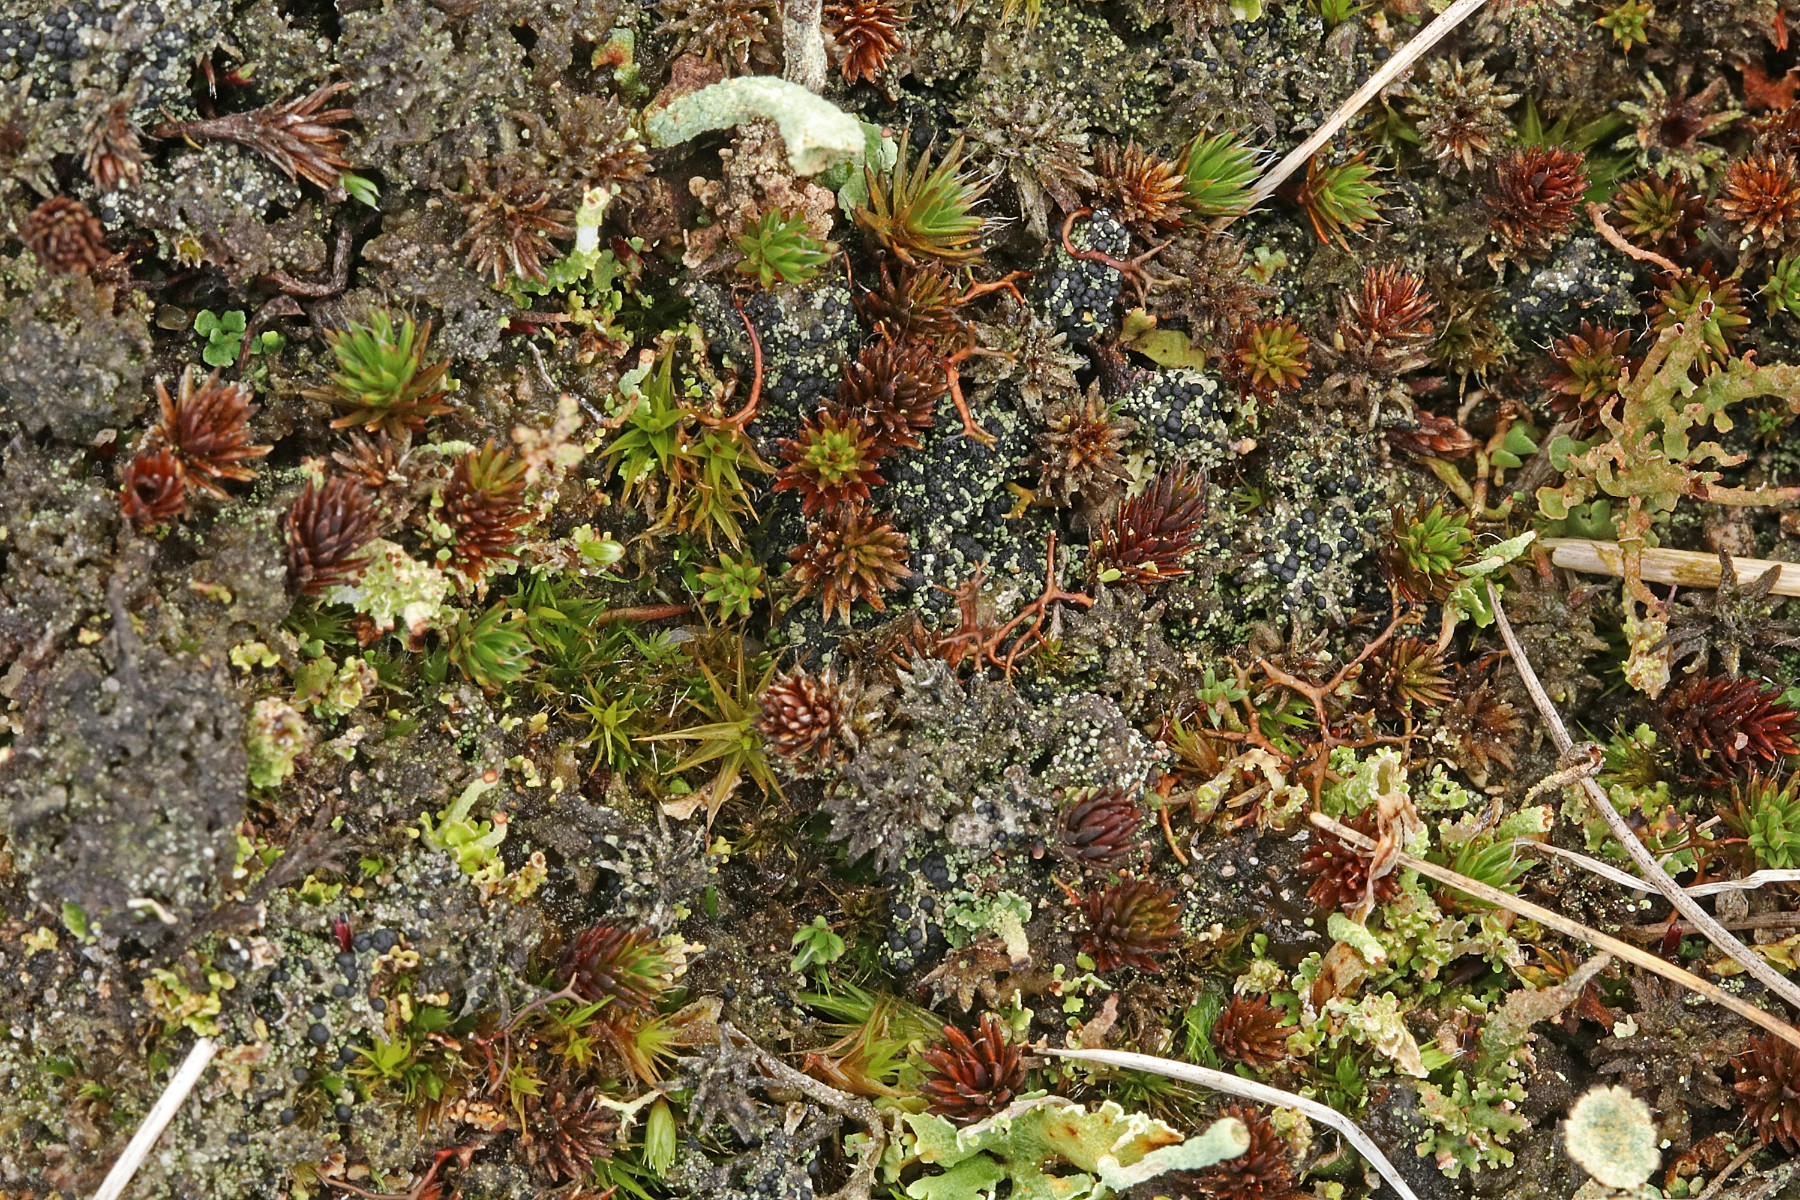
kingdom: Fungi
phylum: Ascomycota
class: Lecanoromycetes
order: Lecanorales
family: Byssolomataceae
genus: Micarea
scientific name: Micarea lignaria
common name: tørve-knaplav
